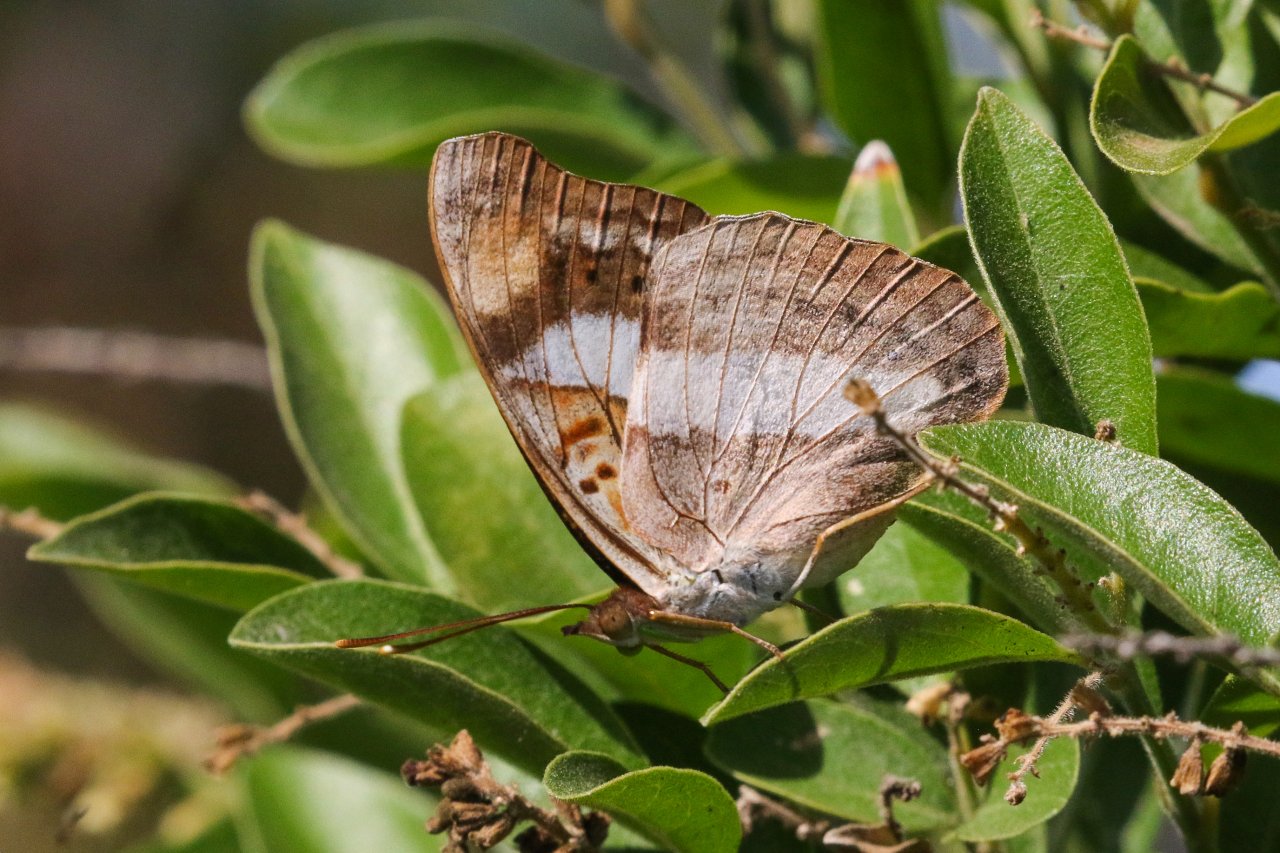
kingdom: Animalia
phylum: Arthropoda
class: Insecta
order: Lepidoptera
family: Nymphalidae
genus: Doxocopa
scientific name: Doxocopa pavon
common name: Pavon Emperor
